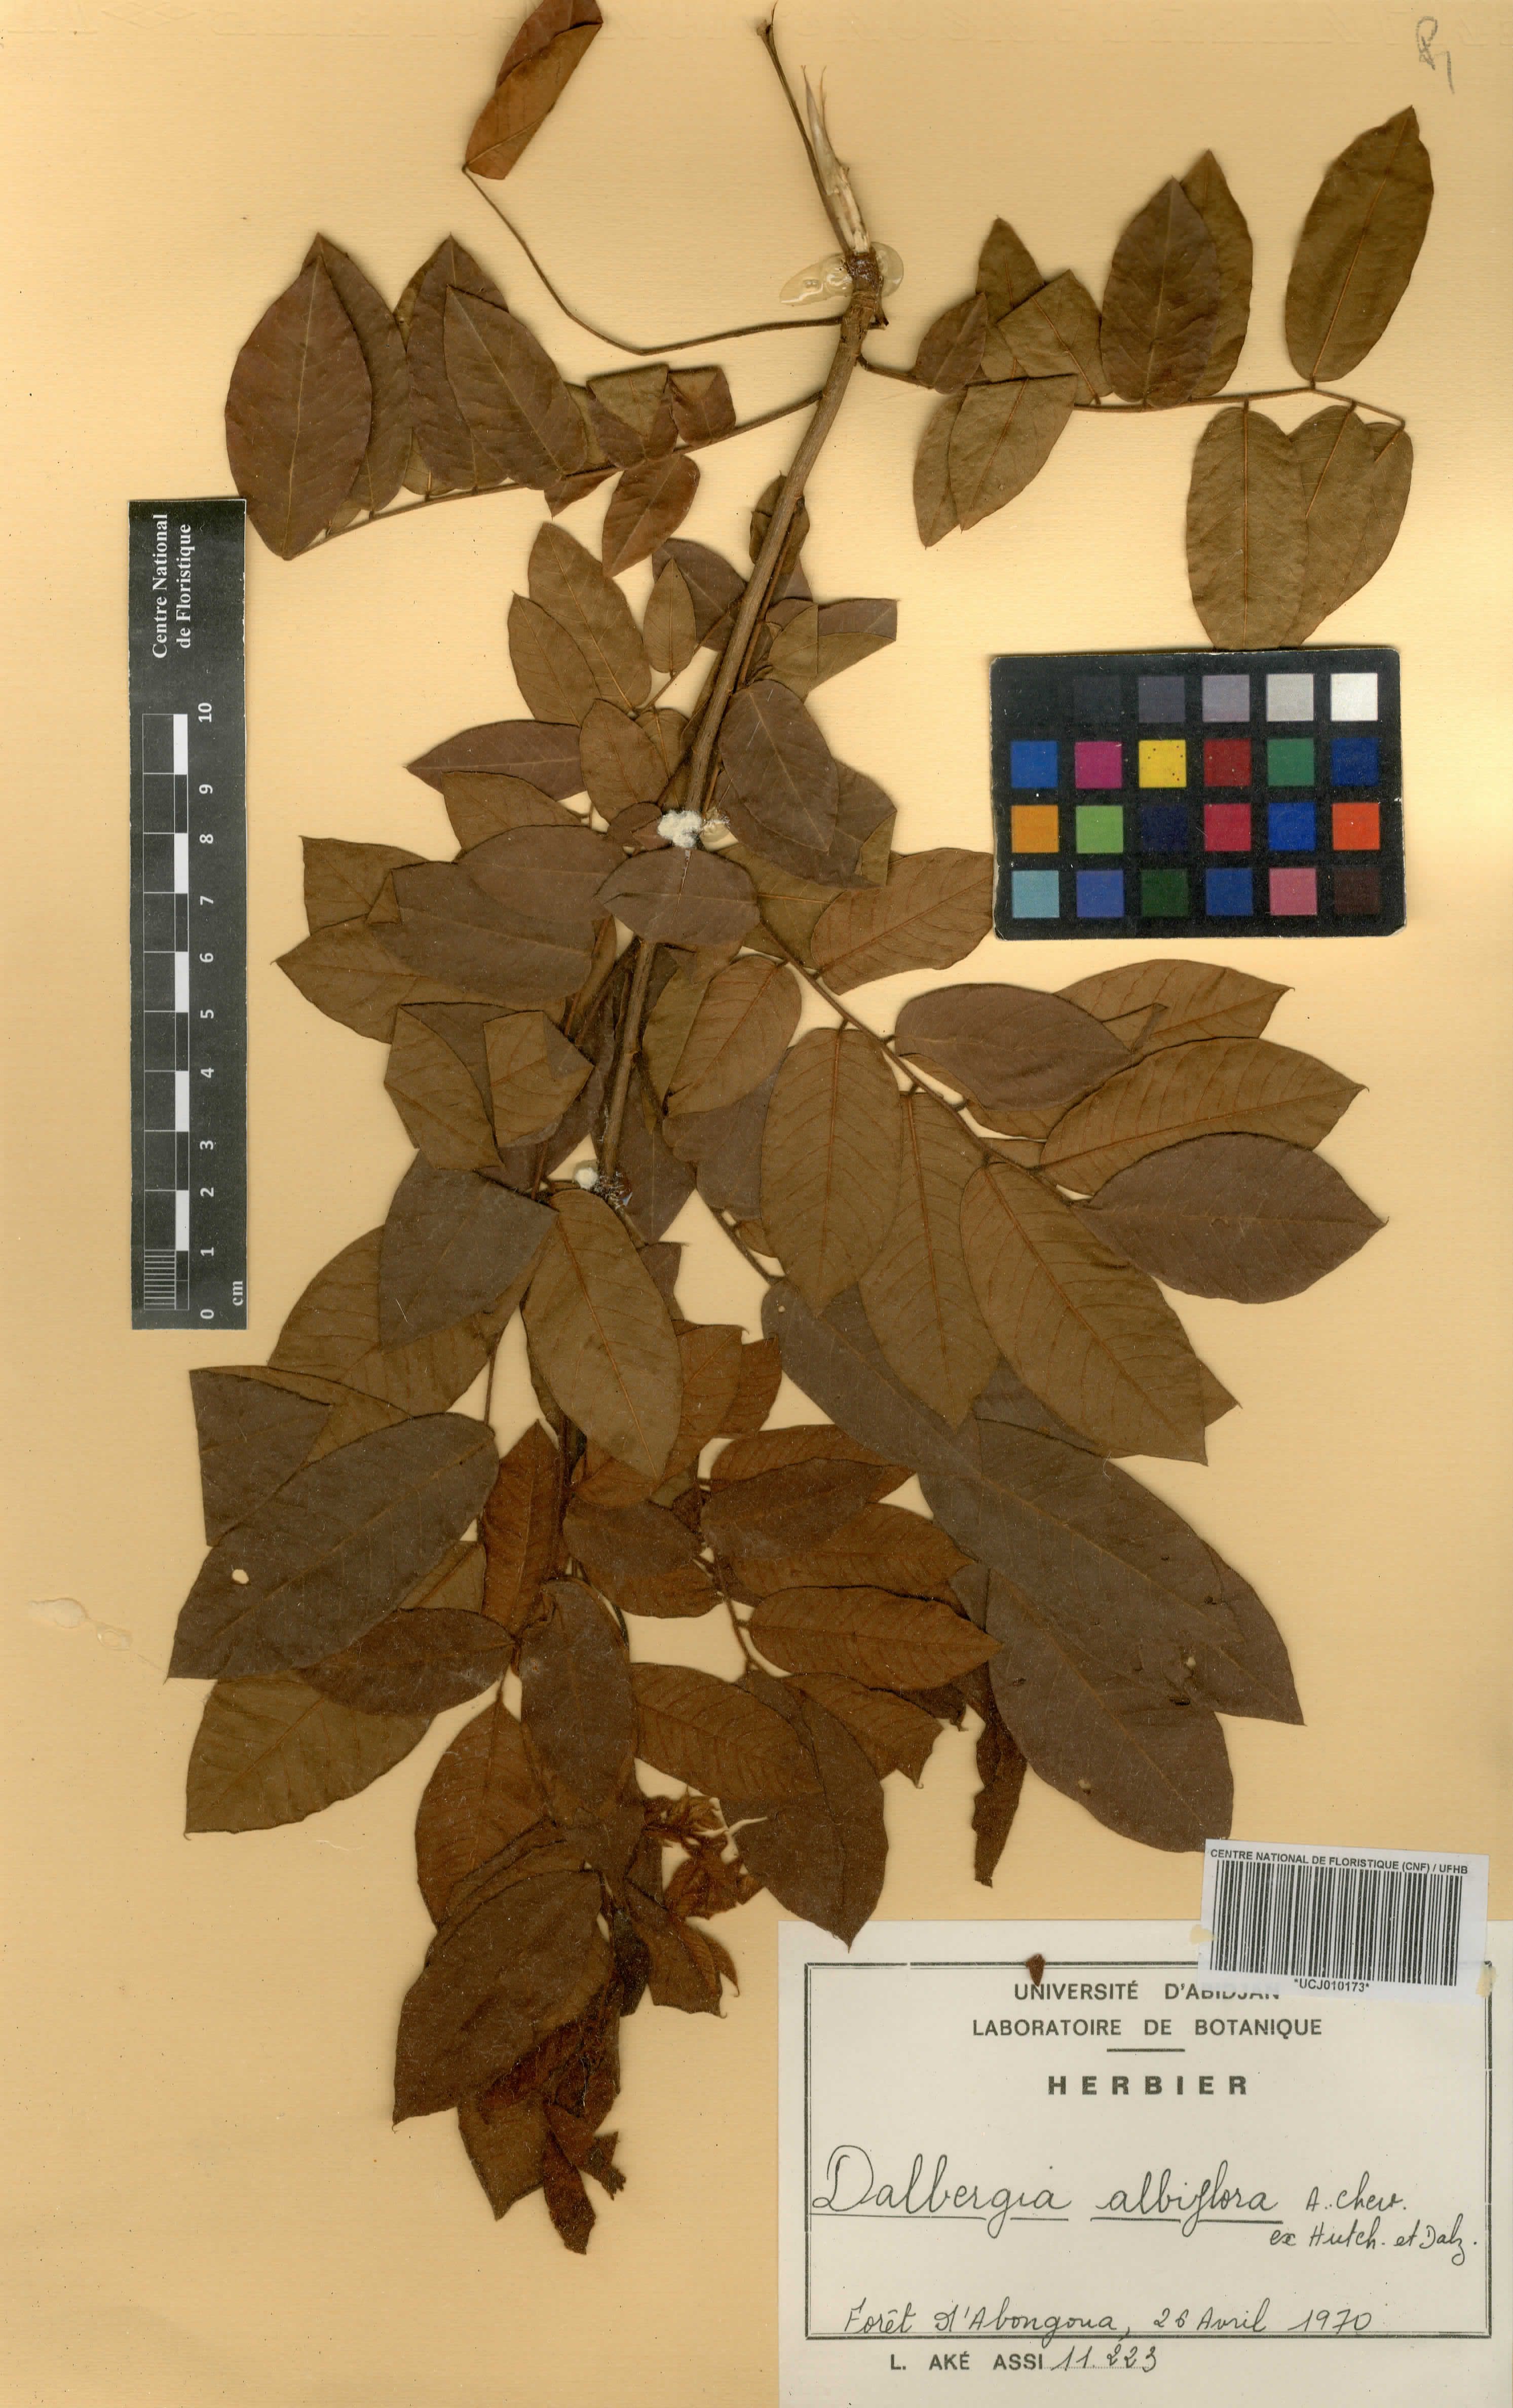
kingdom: Plantae
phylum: Tracheophyta
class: Magnoliopsida
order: Fabales
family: Fabaceae
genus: Dalbergia
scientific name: Dalbergia albiflora
